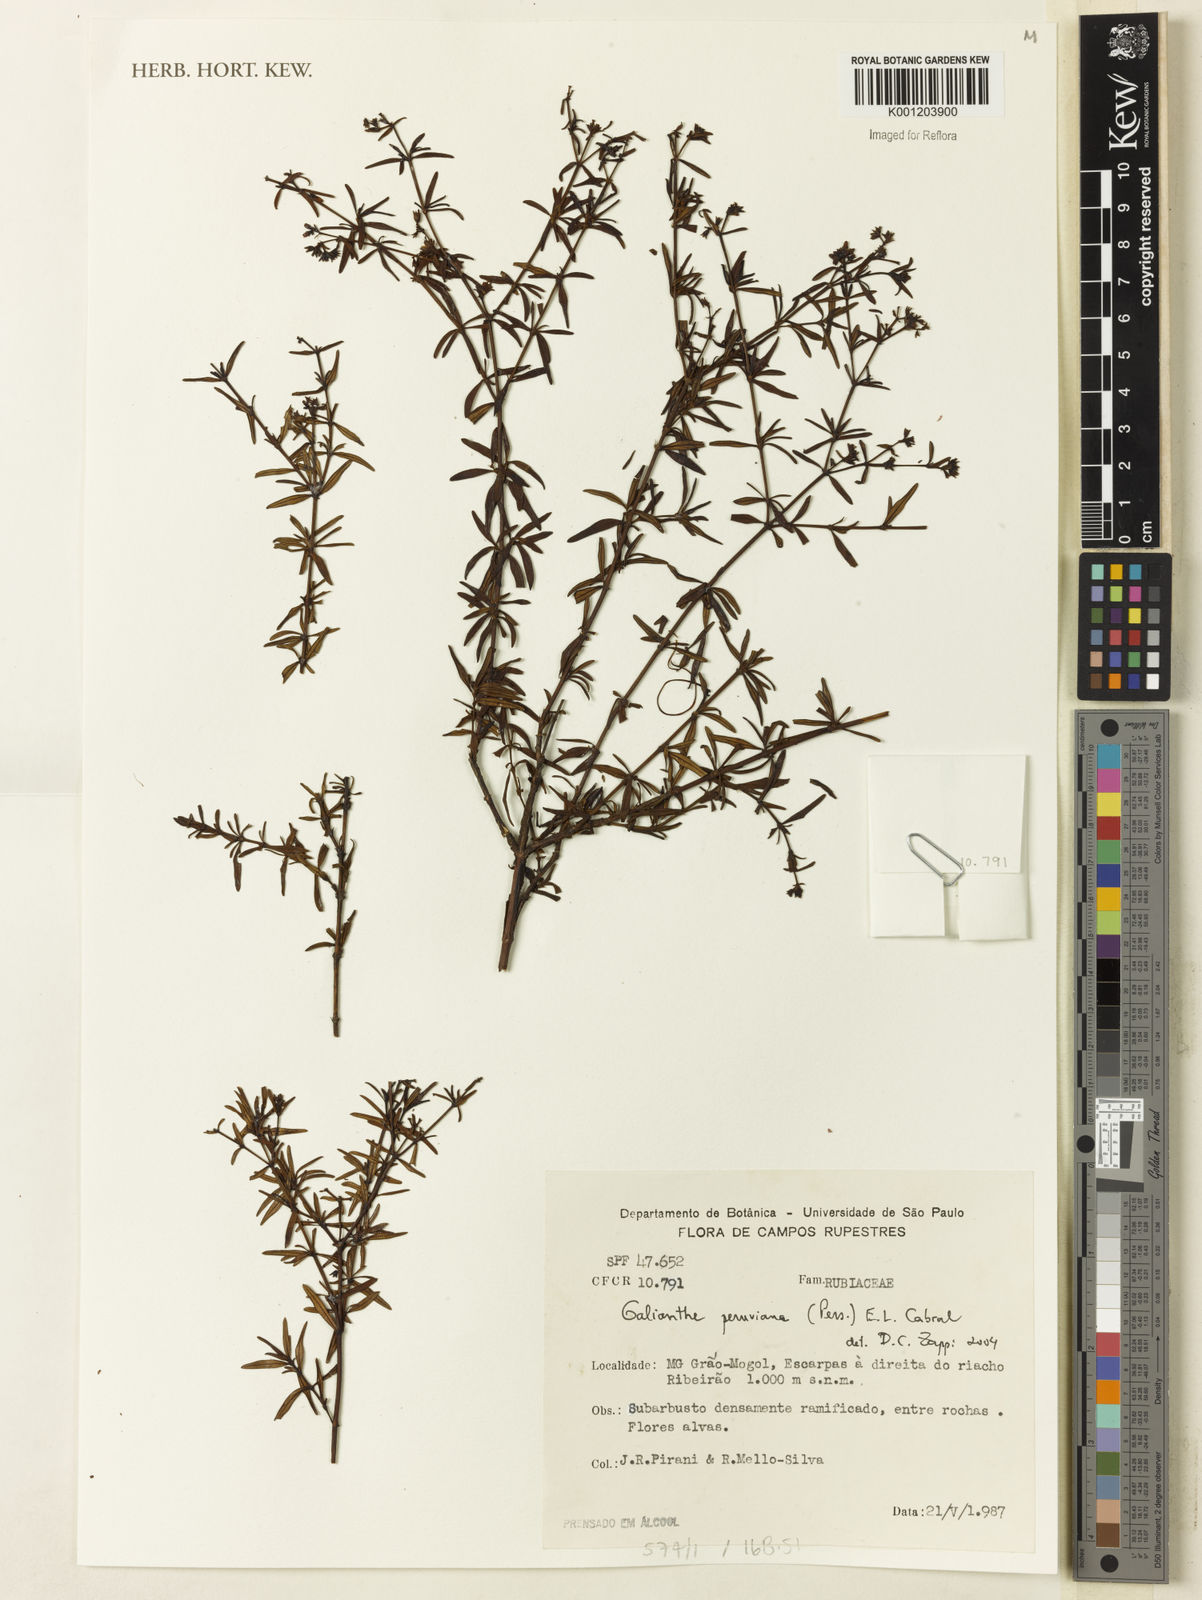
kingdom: Plantae
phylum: Tracheophyta
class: Magnoliopsida
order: Gentianales
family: Rubiaceae
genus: Galianthe
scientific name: Galianthe peruviana
